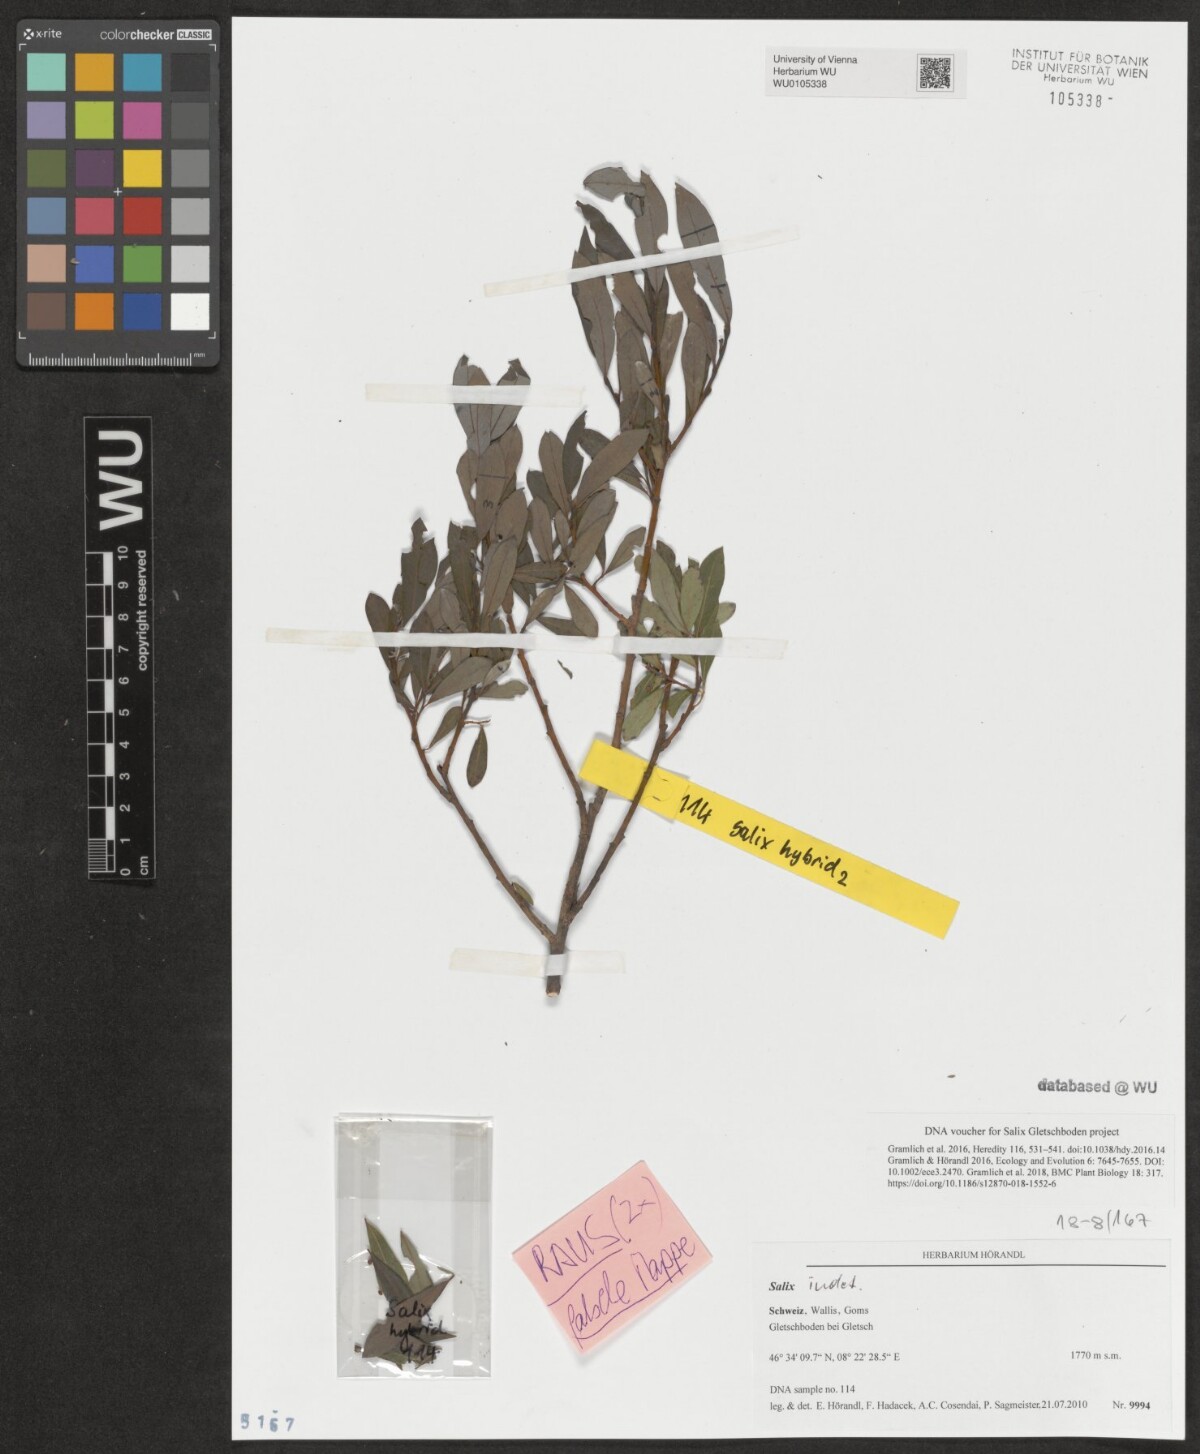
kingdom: Plantae
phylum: Tracheophyta
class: Magnoliopsida
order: Malpighiales
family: Salicaceae
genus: Salix
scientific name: Salix
